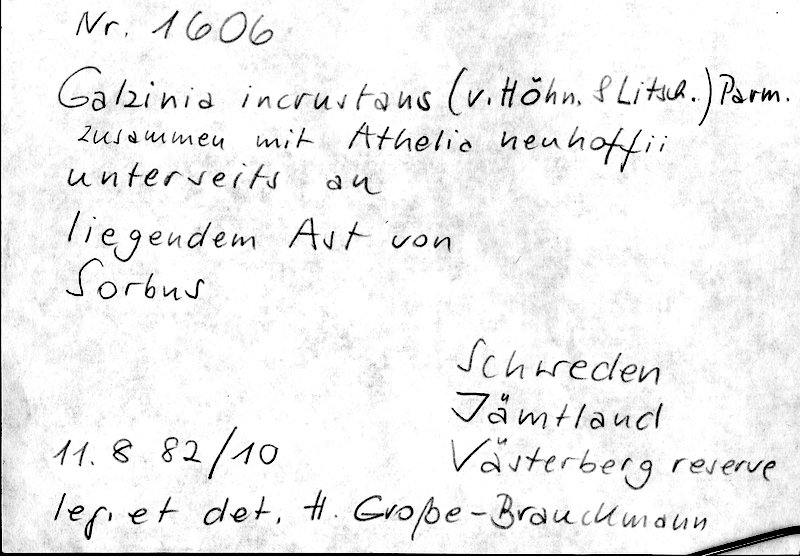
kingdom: Plantae
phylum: Tracheophyta
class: Magnoliopsida
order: Rosales
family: Rosaceae
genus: Sorbus
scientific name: Sorbus
